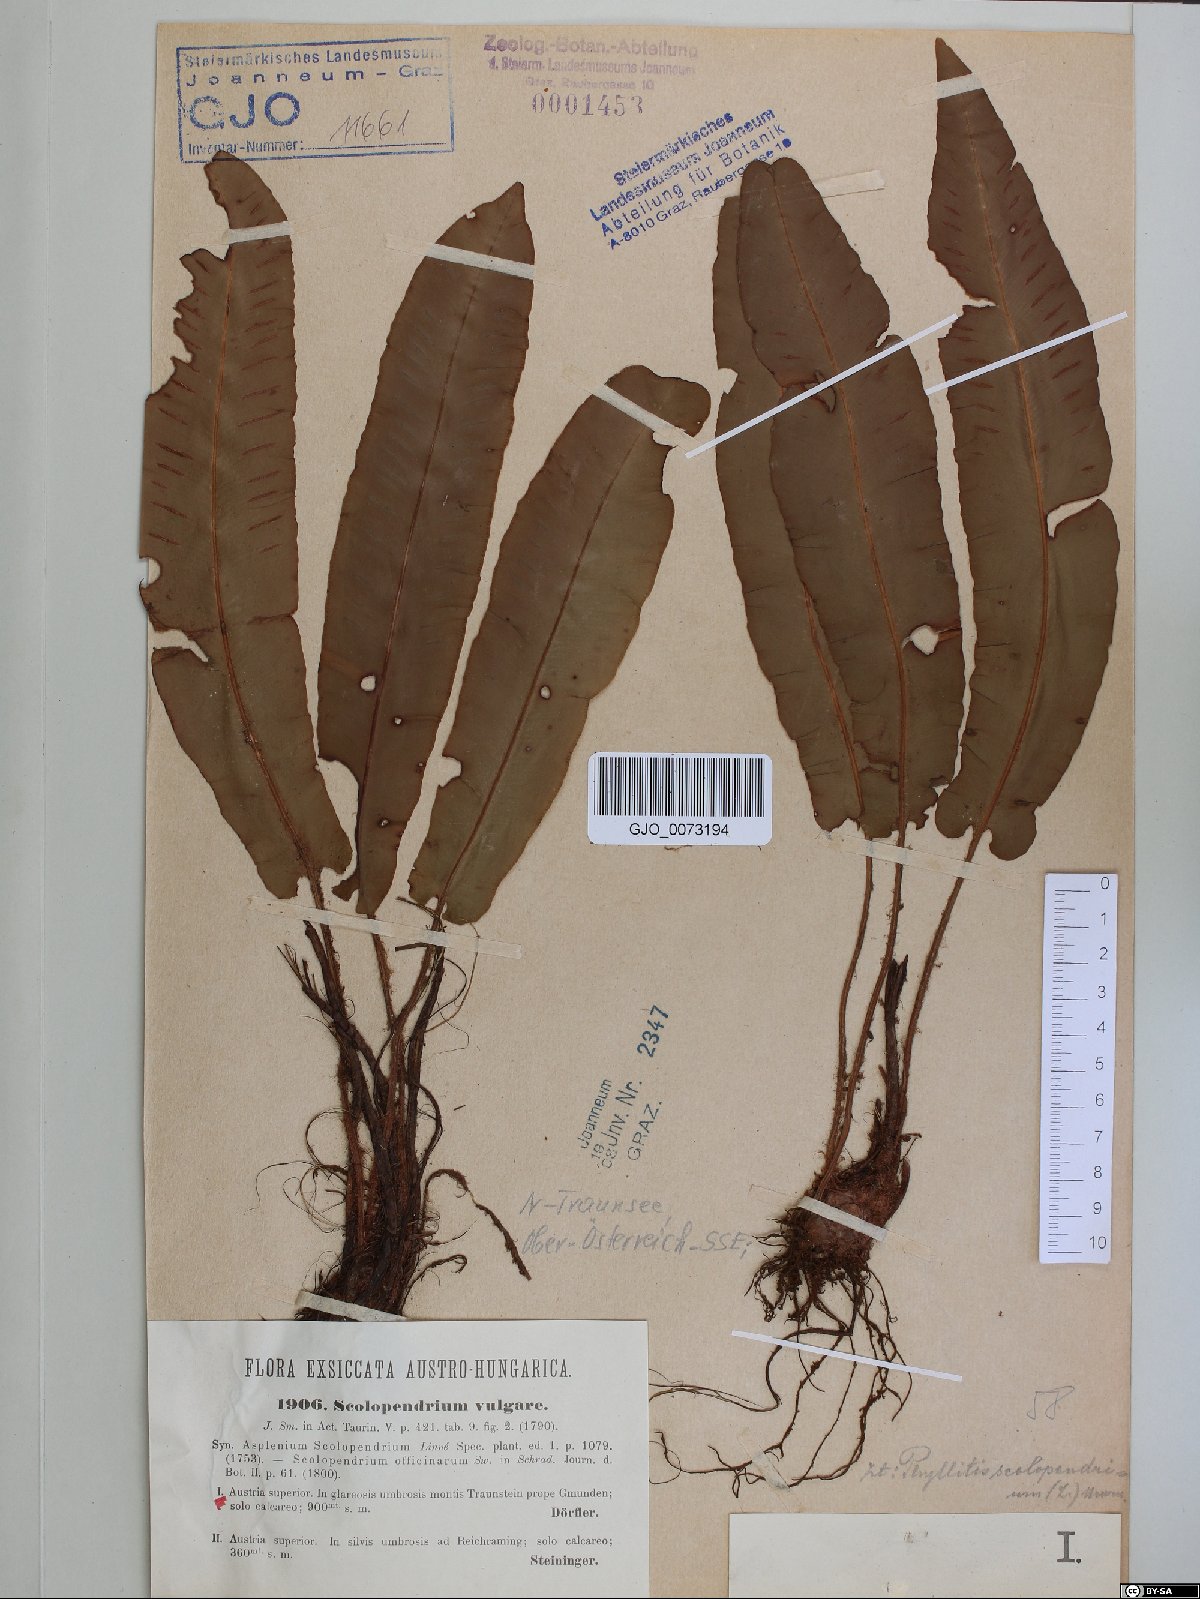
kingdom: Plantae
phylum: Tracheophyta
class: Polypodiopsida
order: Polypodiales
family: Aspleniaceae
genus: Asplenium
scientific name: Asplenium scolopendrium
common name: Hart's-tongue fern
